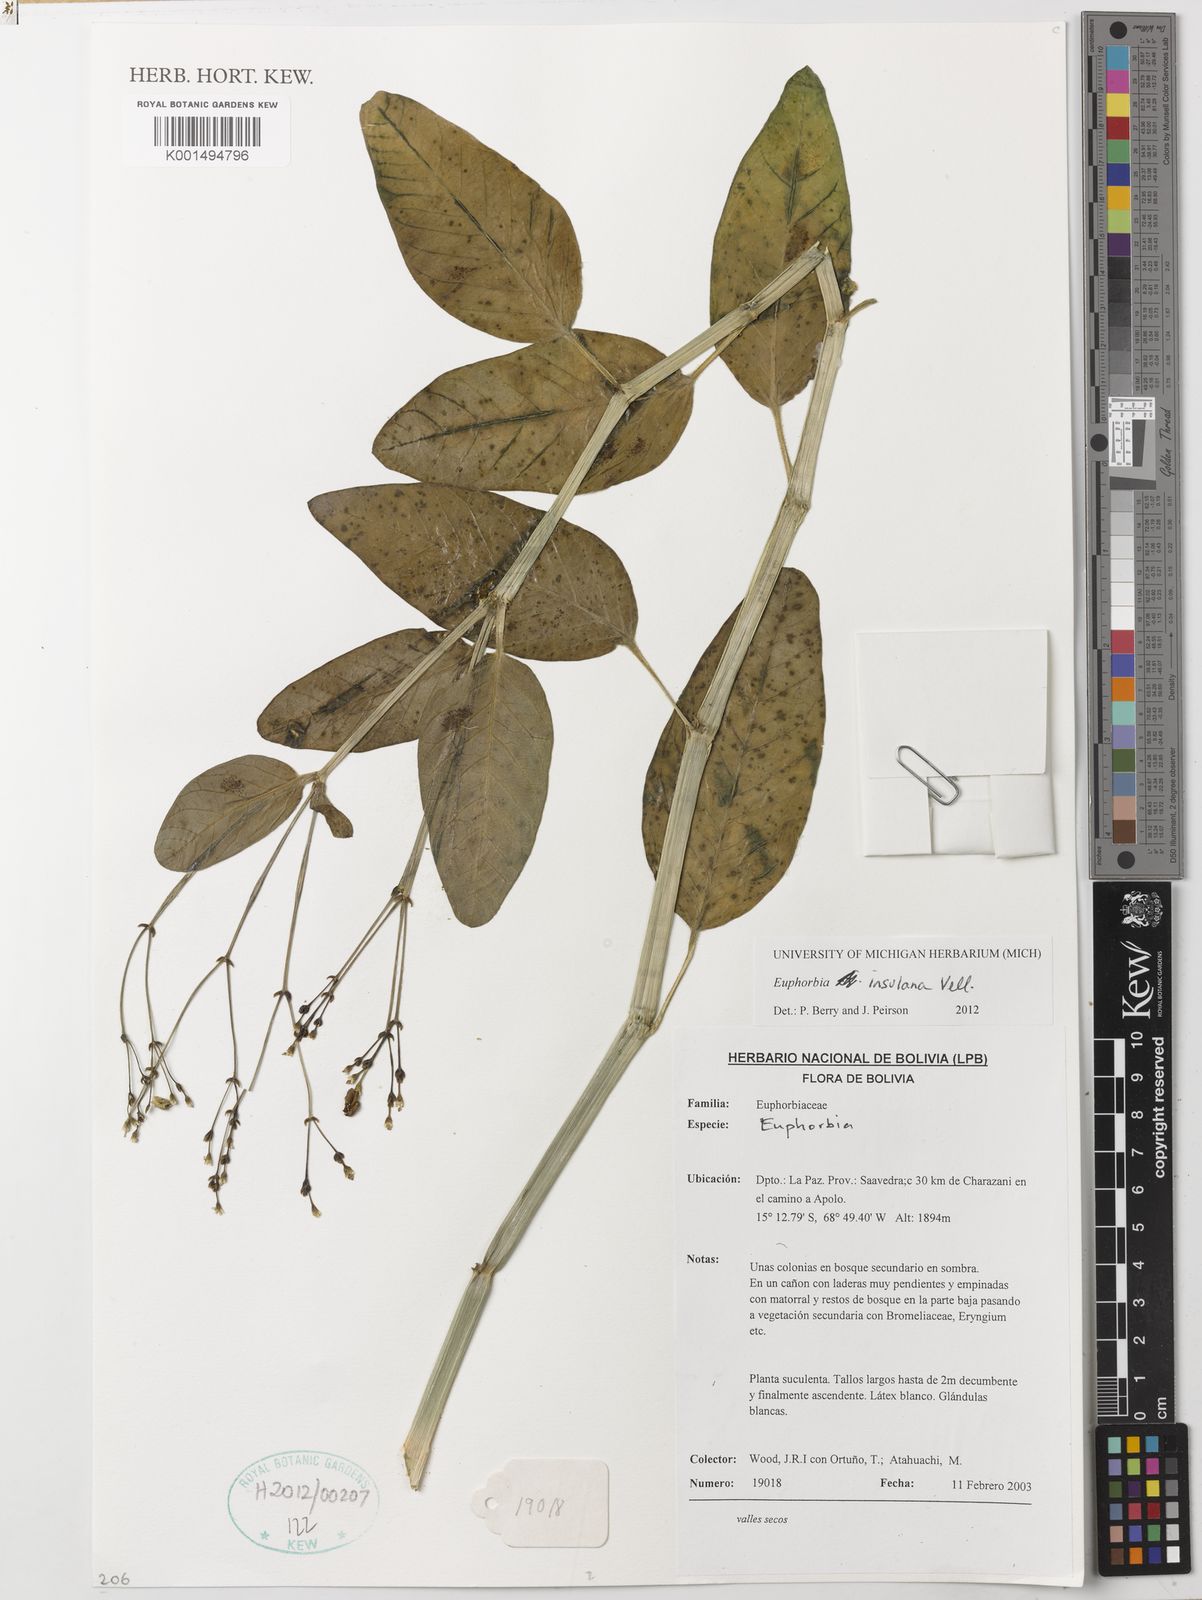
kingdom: Plantae
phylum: Tracheophyta
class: Magnoliopsida
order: Malpighiales
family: Euphorbiaceae
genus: Euphorbia
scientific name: Euphorbia insulana
